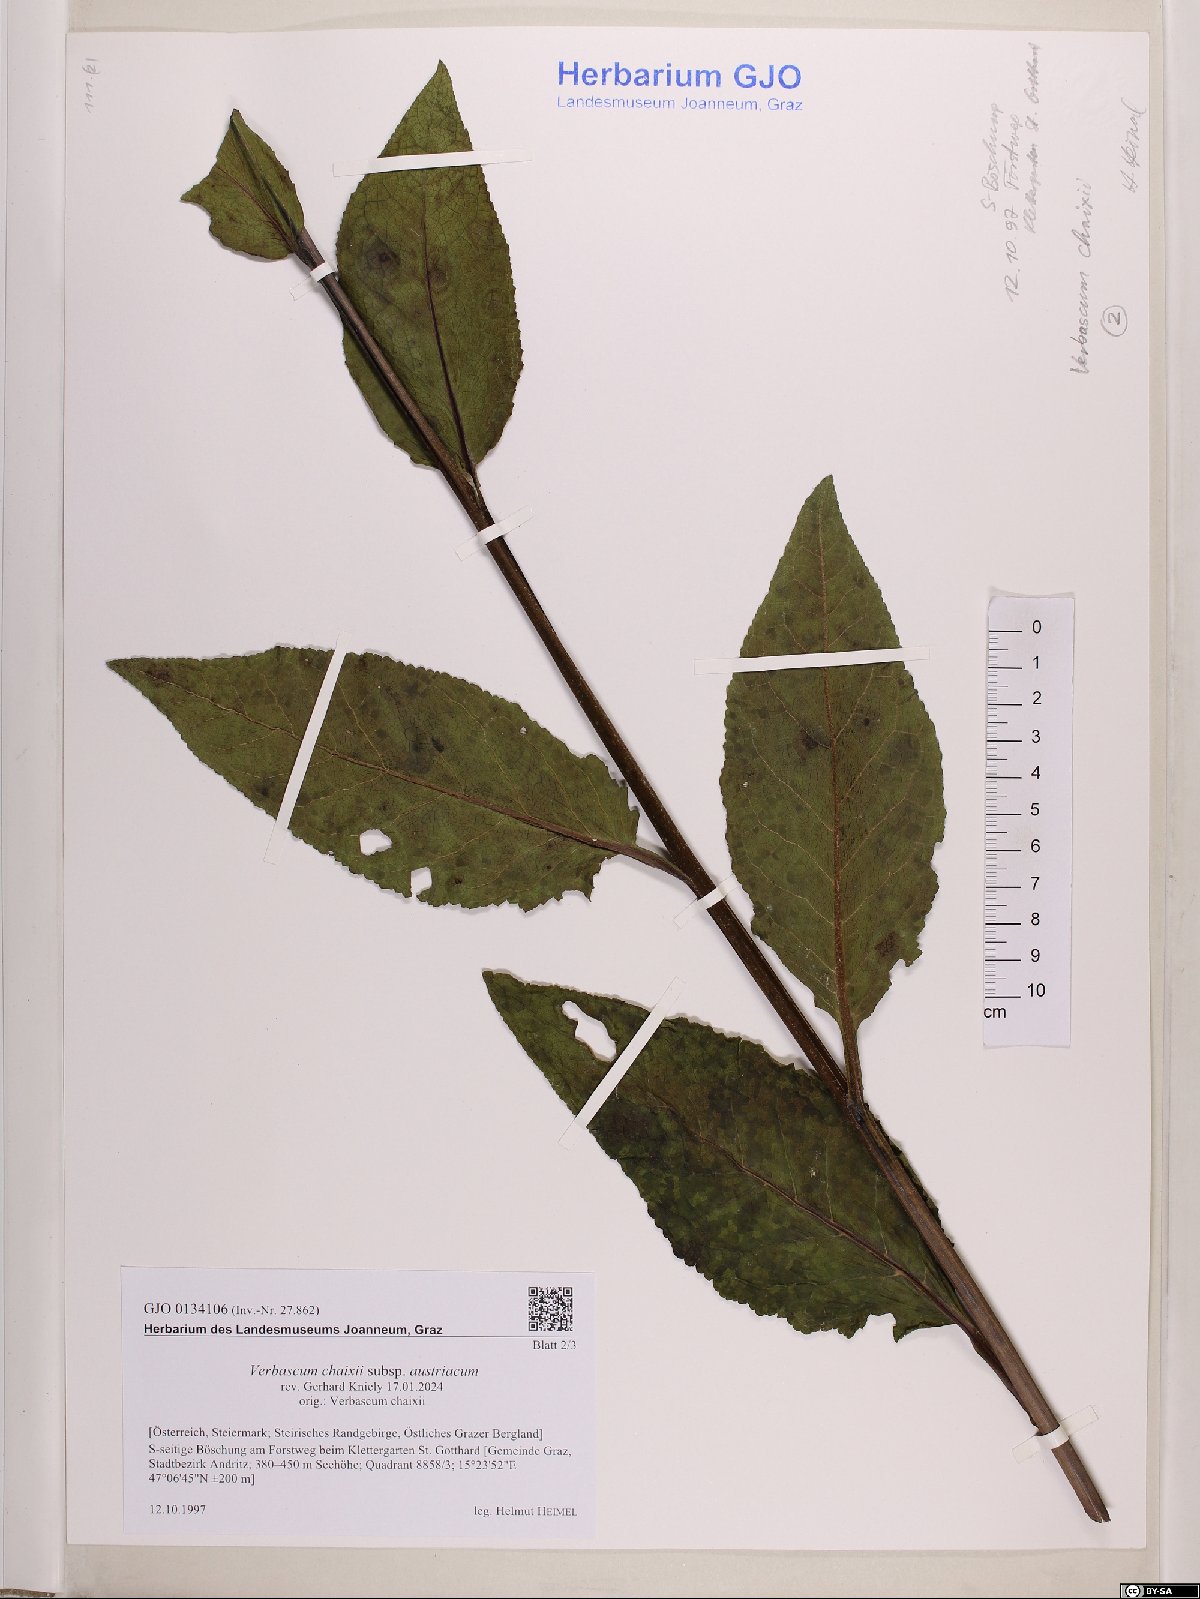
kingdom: Plantae
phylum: Tracheophyta
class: Magnoliopsida
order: Lamiales
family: Scrophulariaceae
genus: Verbascum
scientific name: Verbascum chaixii
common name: Nettle-leaved mullein
